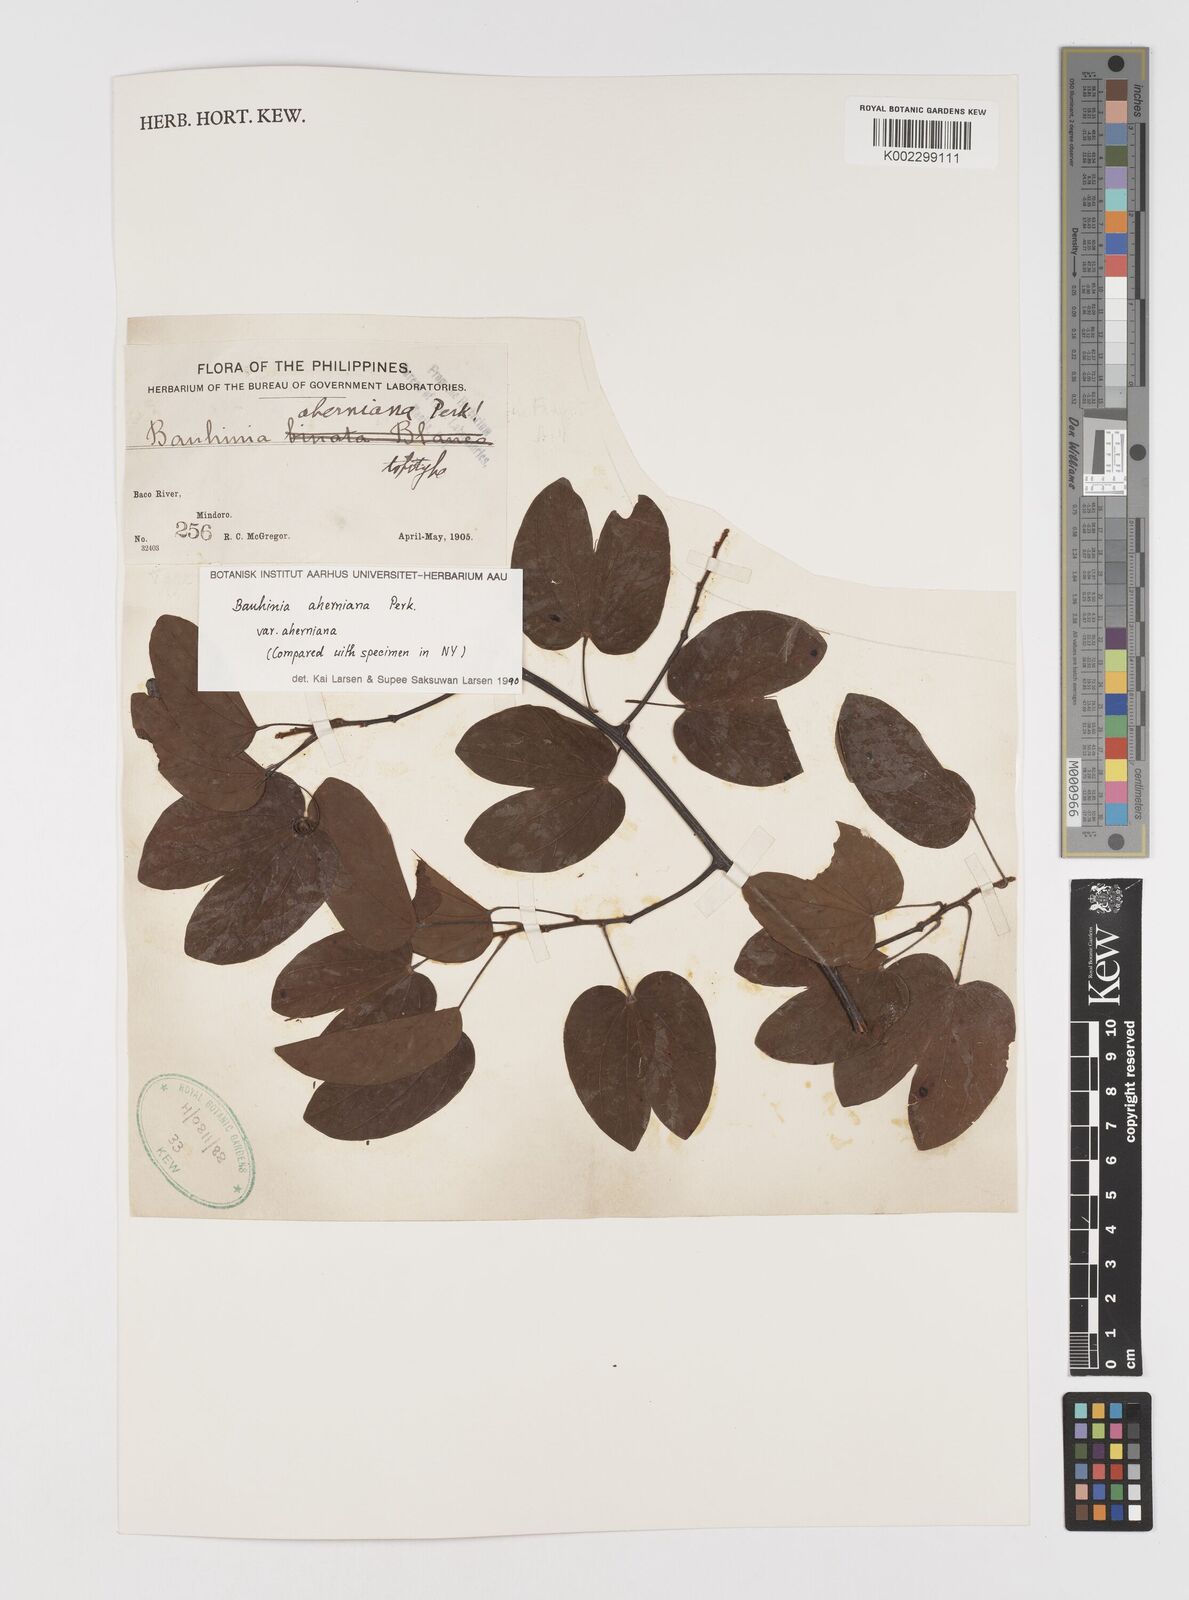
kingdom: Plantae
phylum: Tracheophyta
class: Magnoliopsida
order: Fabales
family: Fabaceae
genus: Phanera
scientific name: Phanera aherniana
